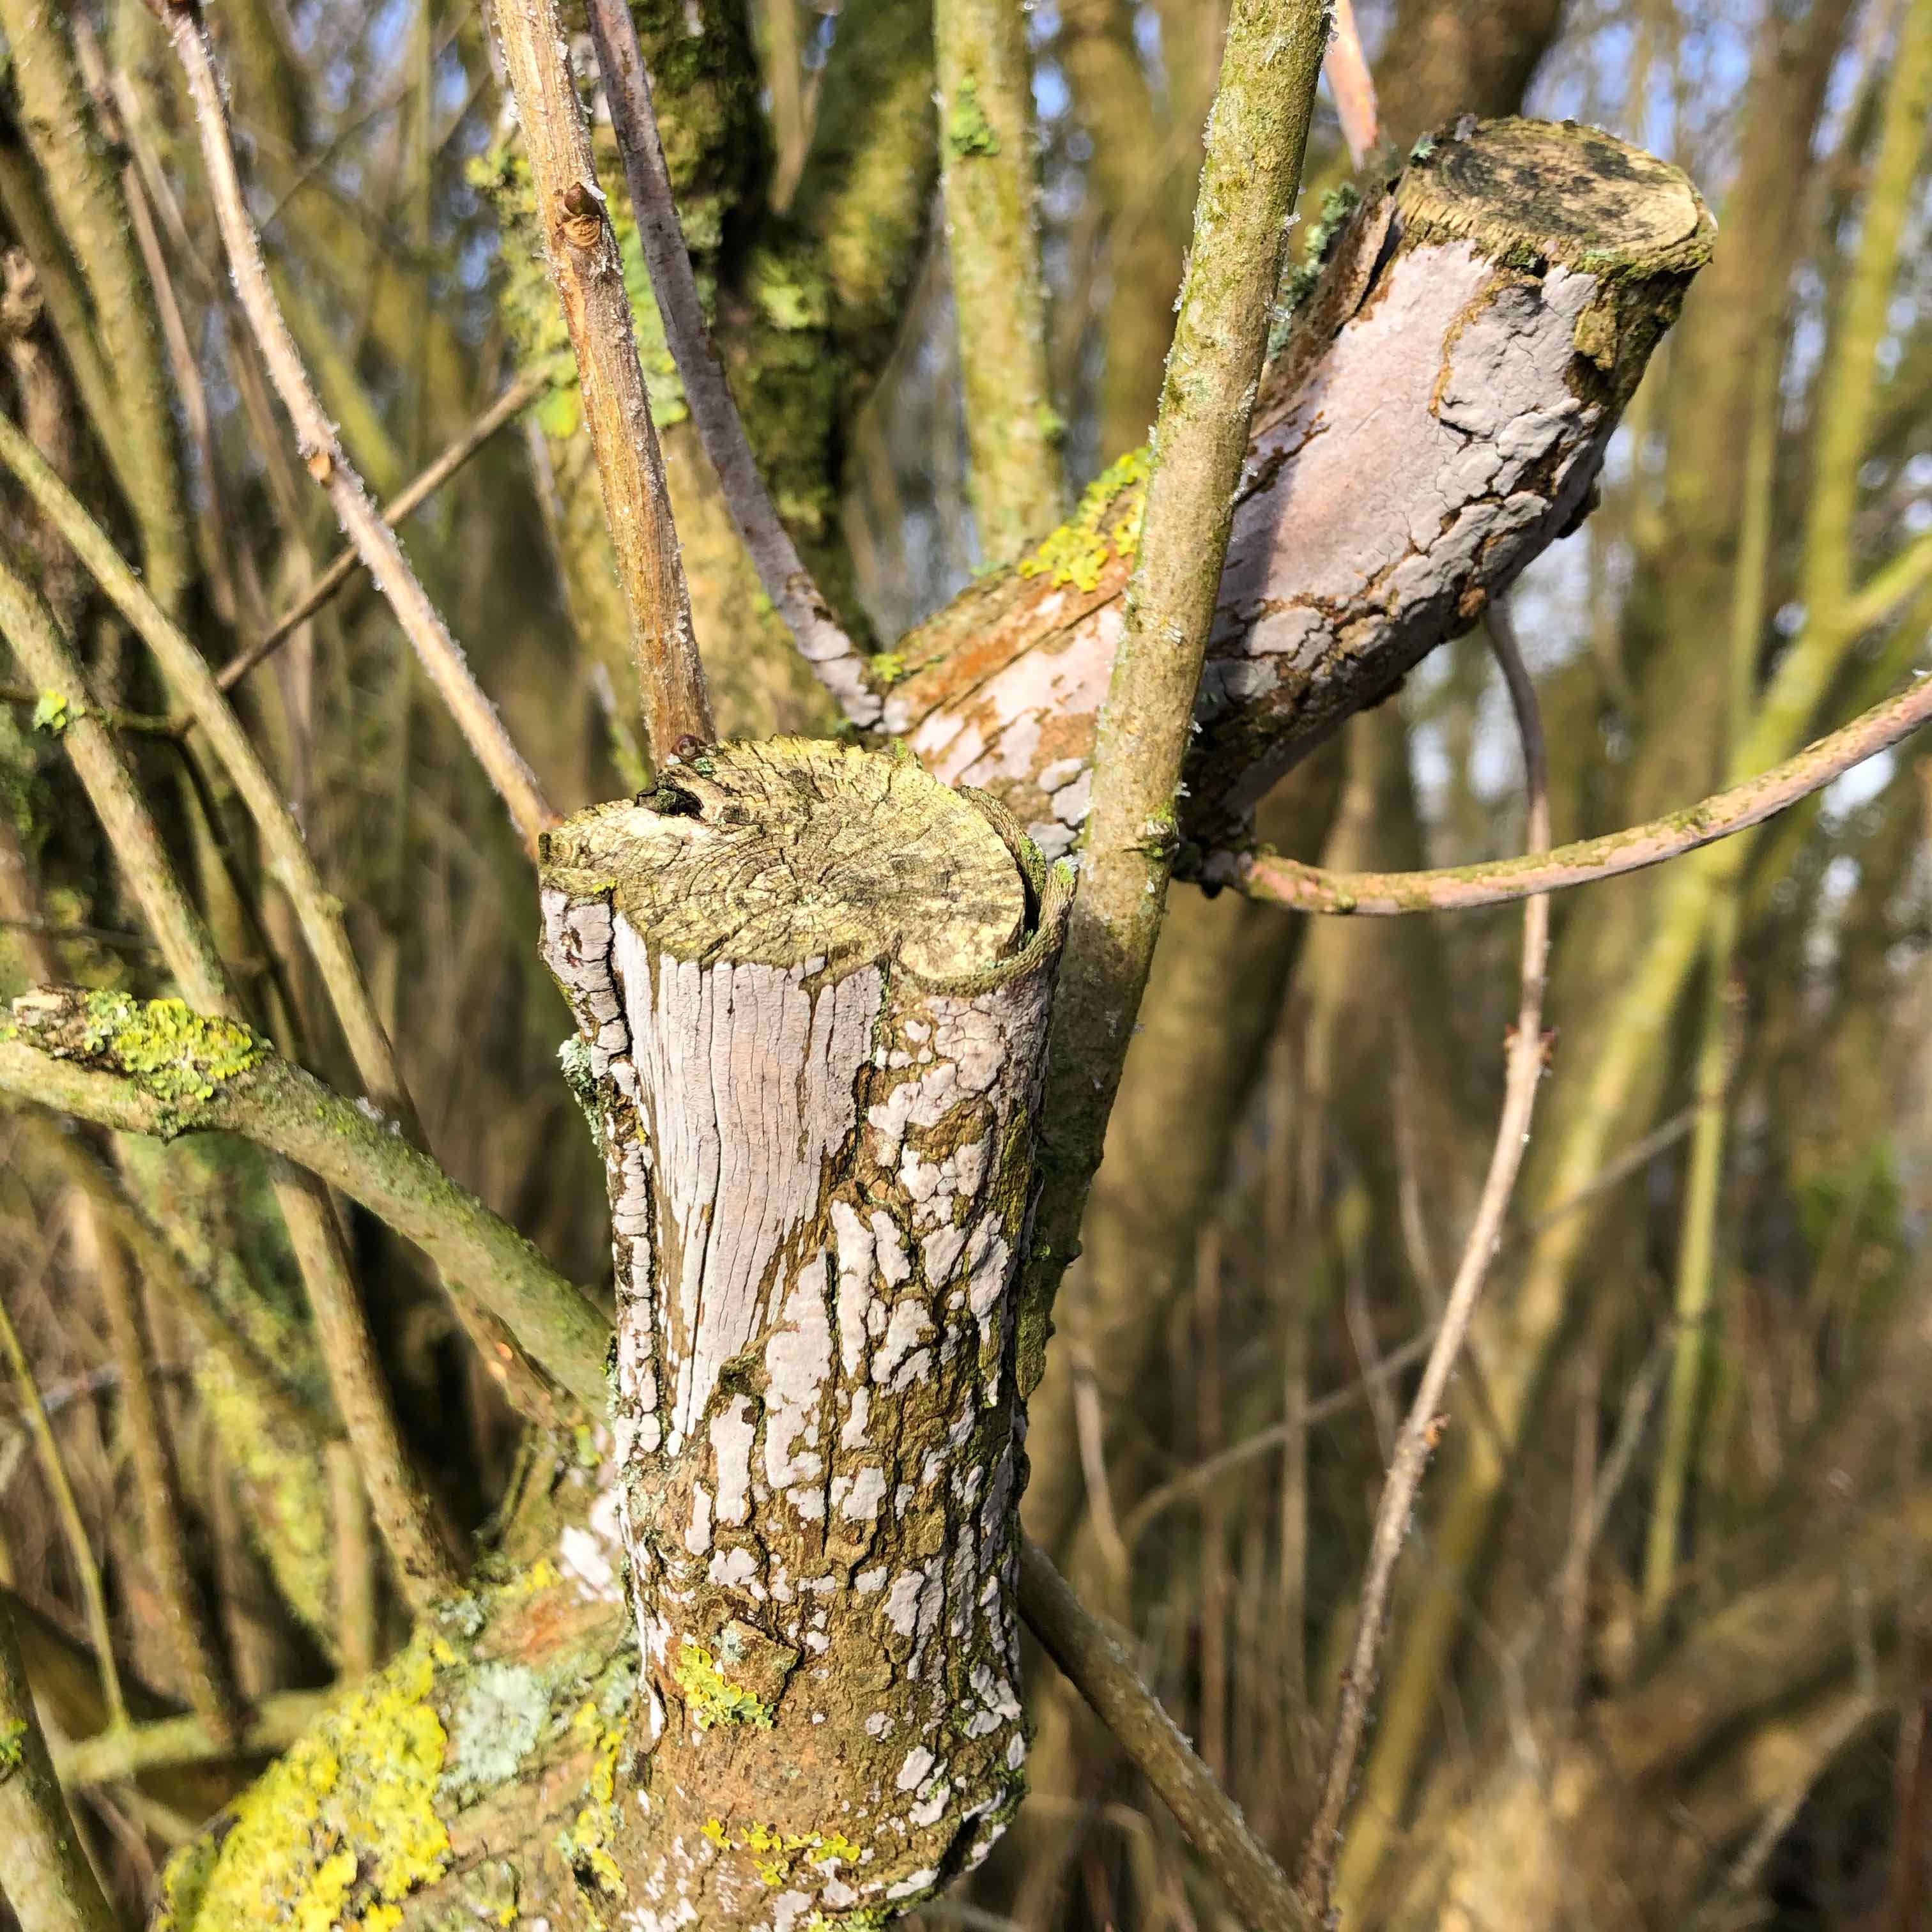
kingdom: Fungi
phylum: Basidiomycota
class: Agaricomycetes
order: Russulales
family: Peniophoraceae
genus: Peniophora
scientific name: Peniophora lycii
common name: grynet voksskind
